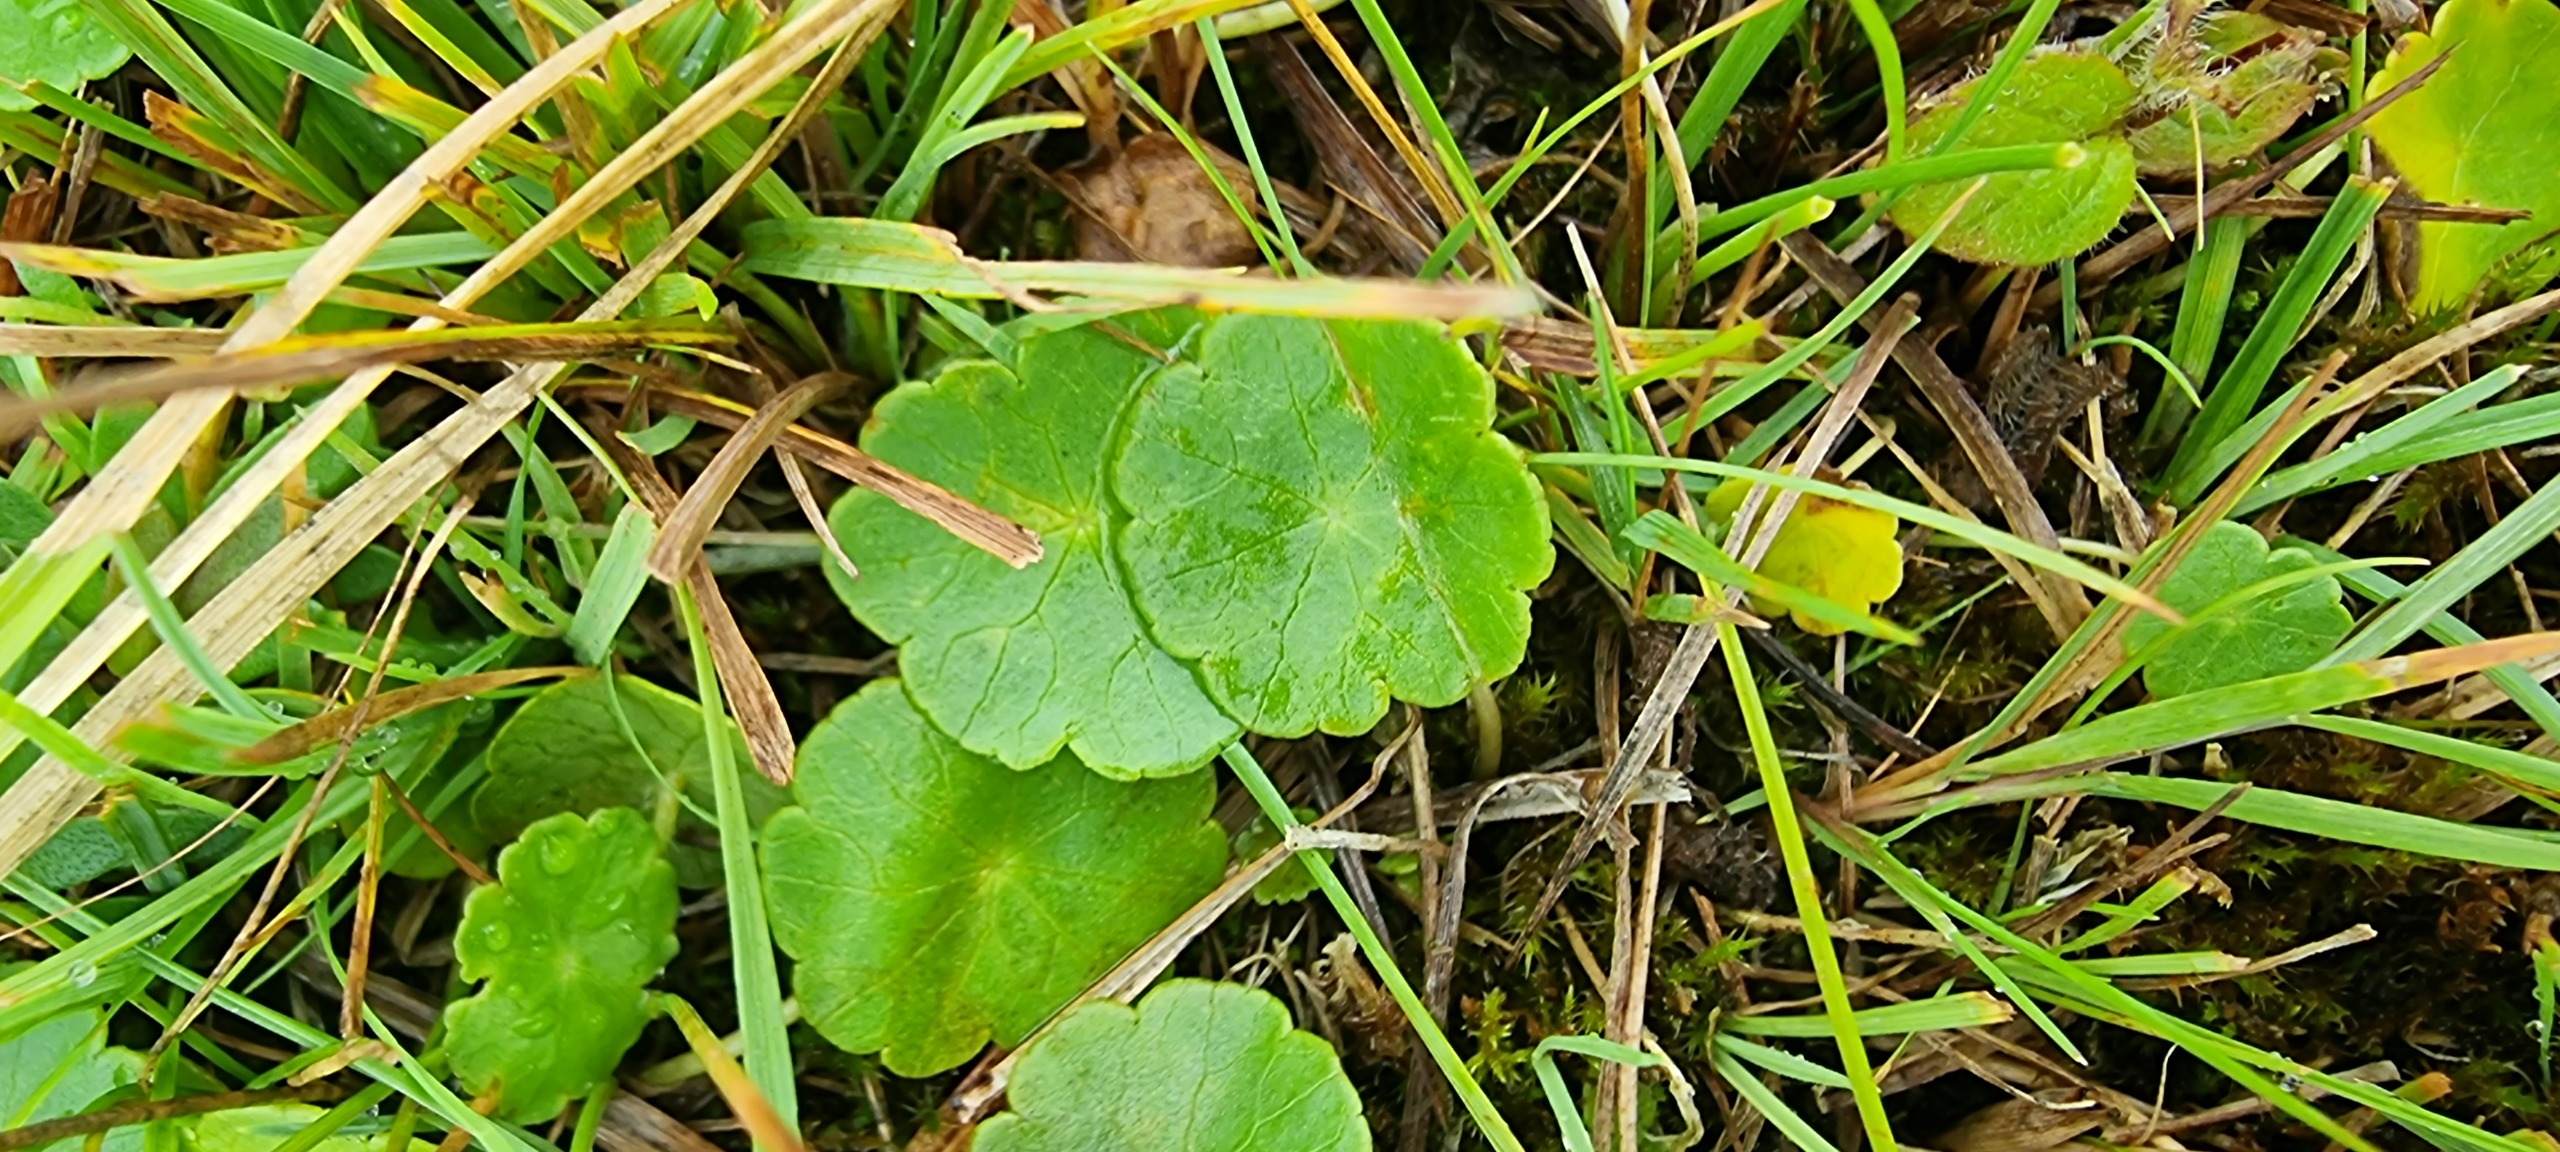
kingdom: Plantae
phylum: Tracheophyta
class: Magnoliopsida
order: Apiales
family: Araliaceae
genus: Hydrocotyle
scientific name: Hydrocotyle vulgaris
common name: Vandnavle
